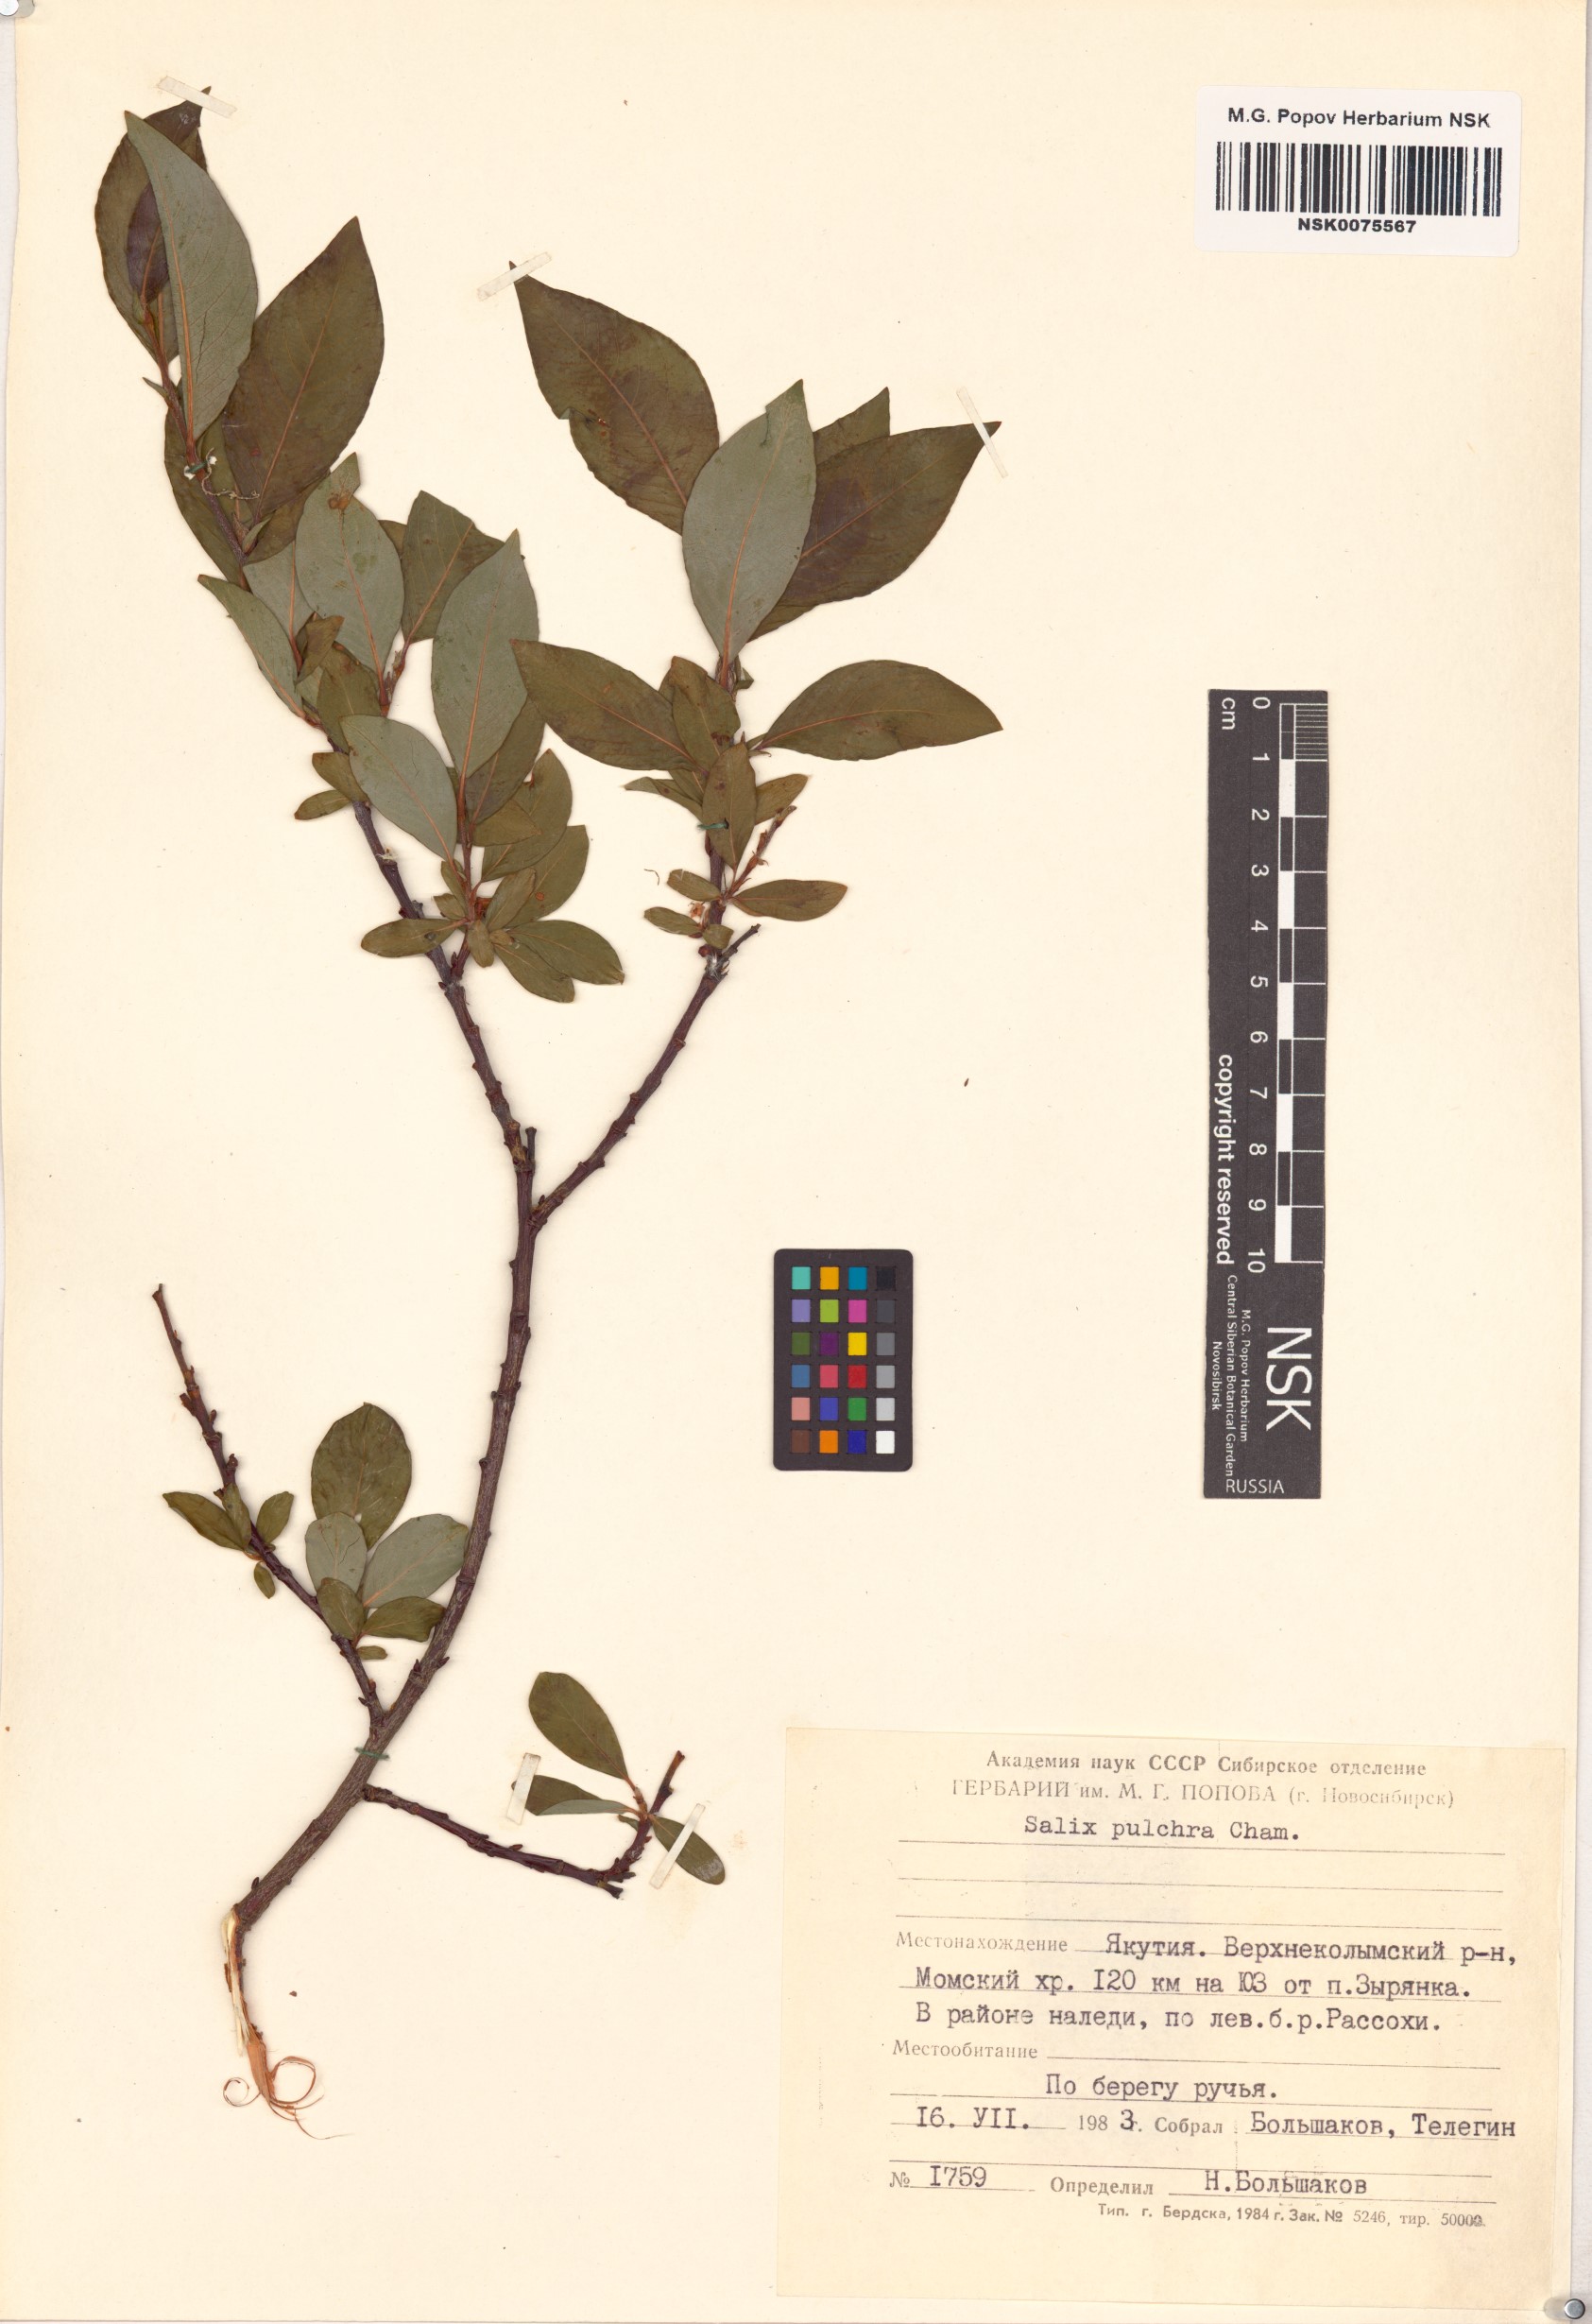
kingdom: Plantae
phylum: Tracheophyta
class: Magnoliopsida
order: Malpighiales
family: Salicaceae
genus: Salix
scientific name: Salix pulchra
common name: Diamond-leaved willow
